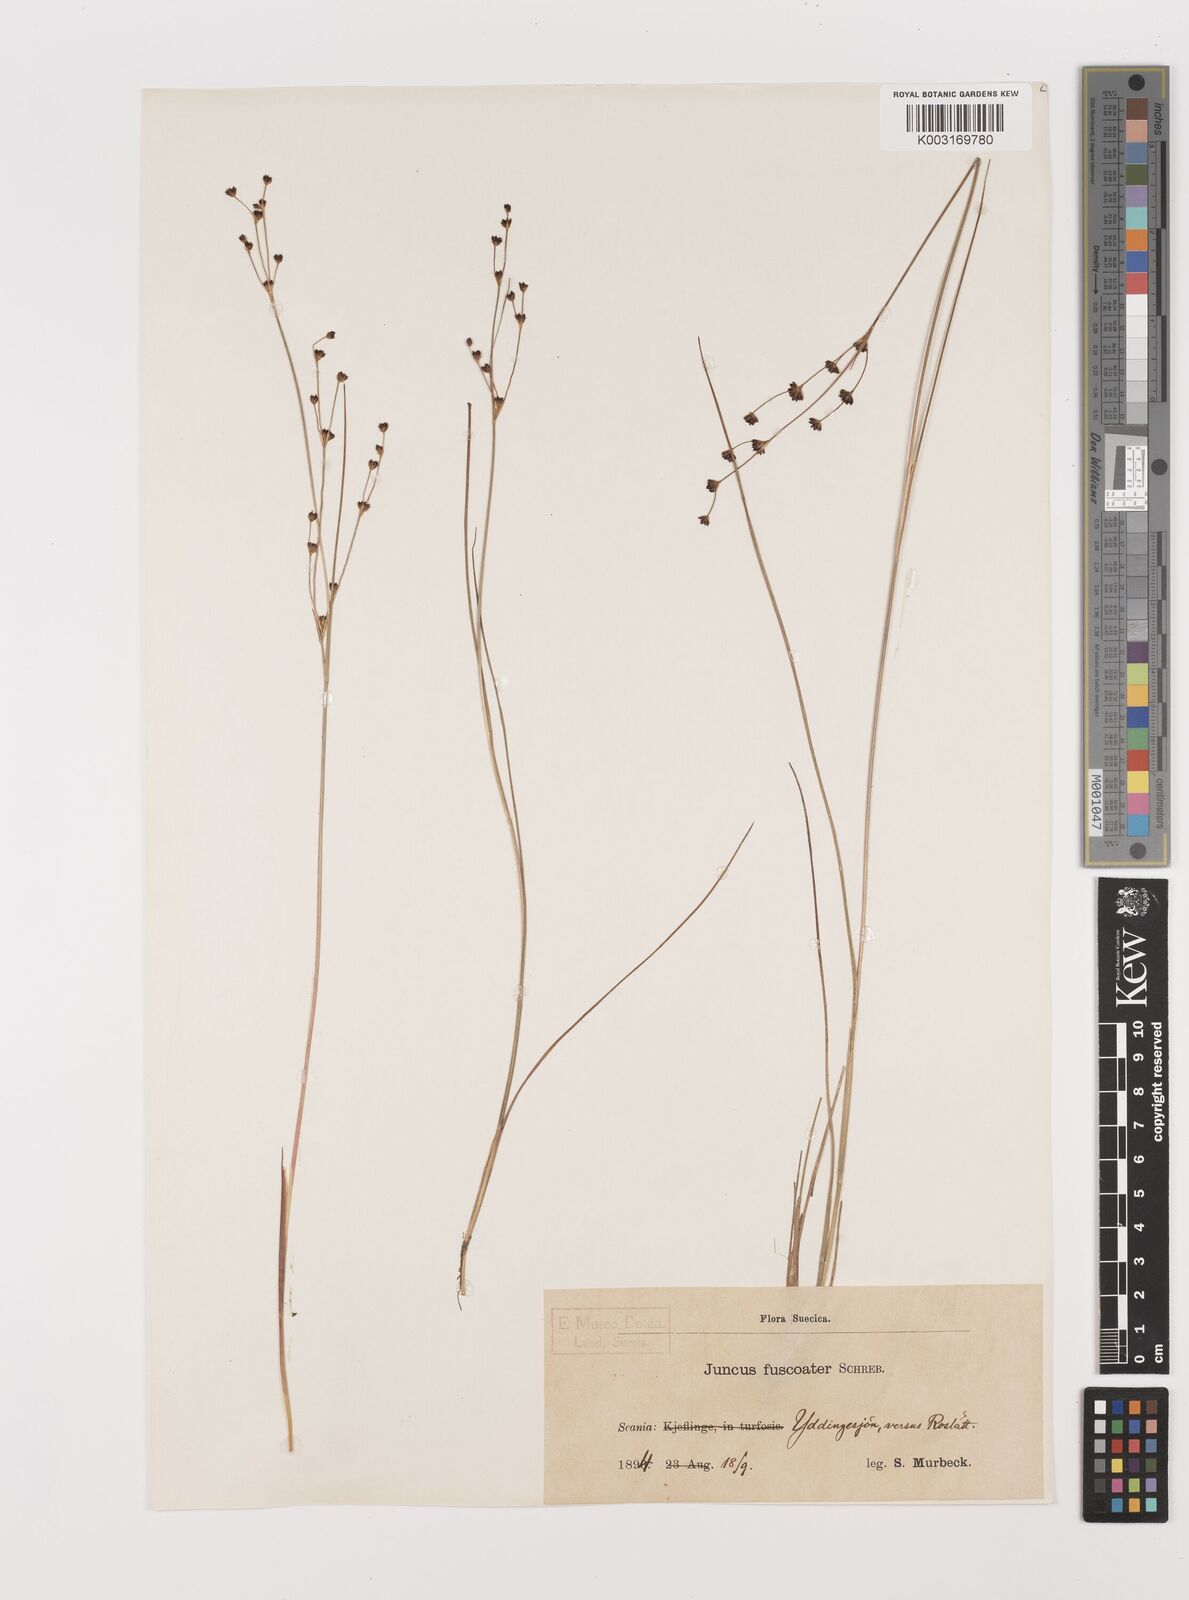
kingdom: Plantae
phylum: Tracheophyta
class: Liliopsida
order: Poales
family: Juncaceae
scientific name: Juncaceae
